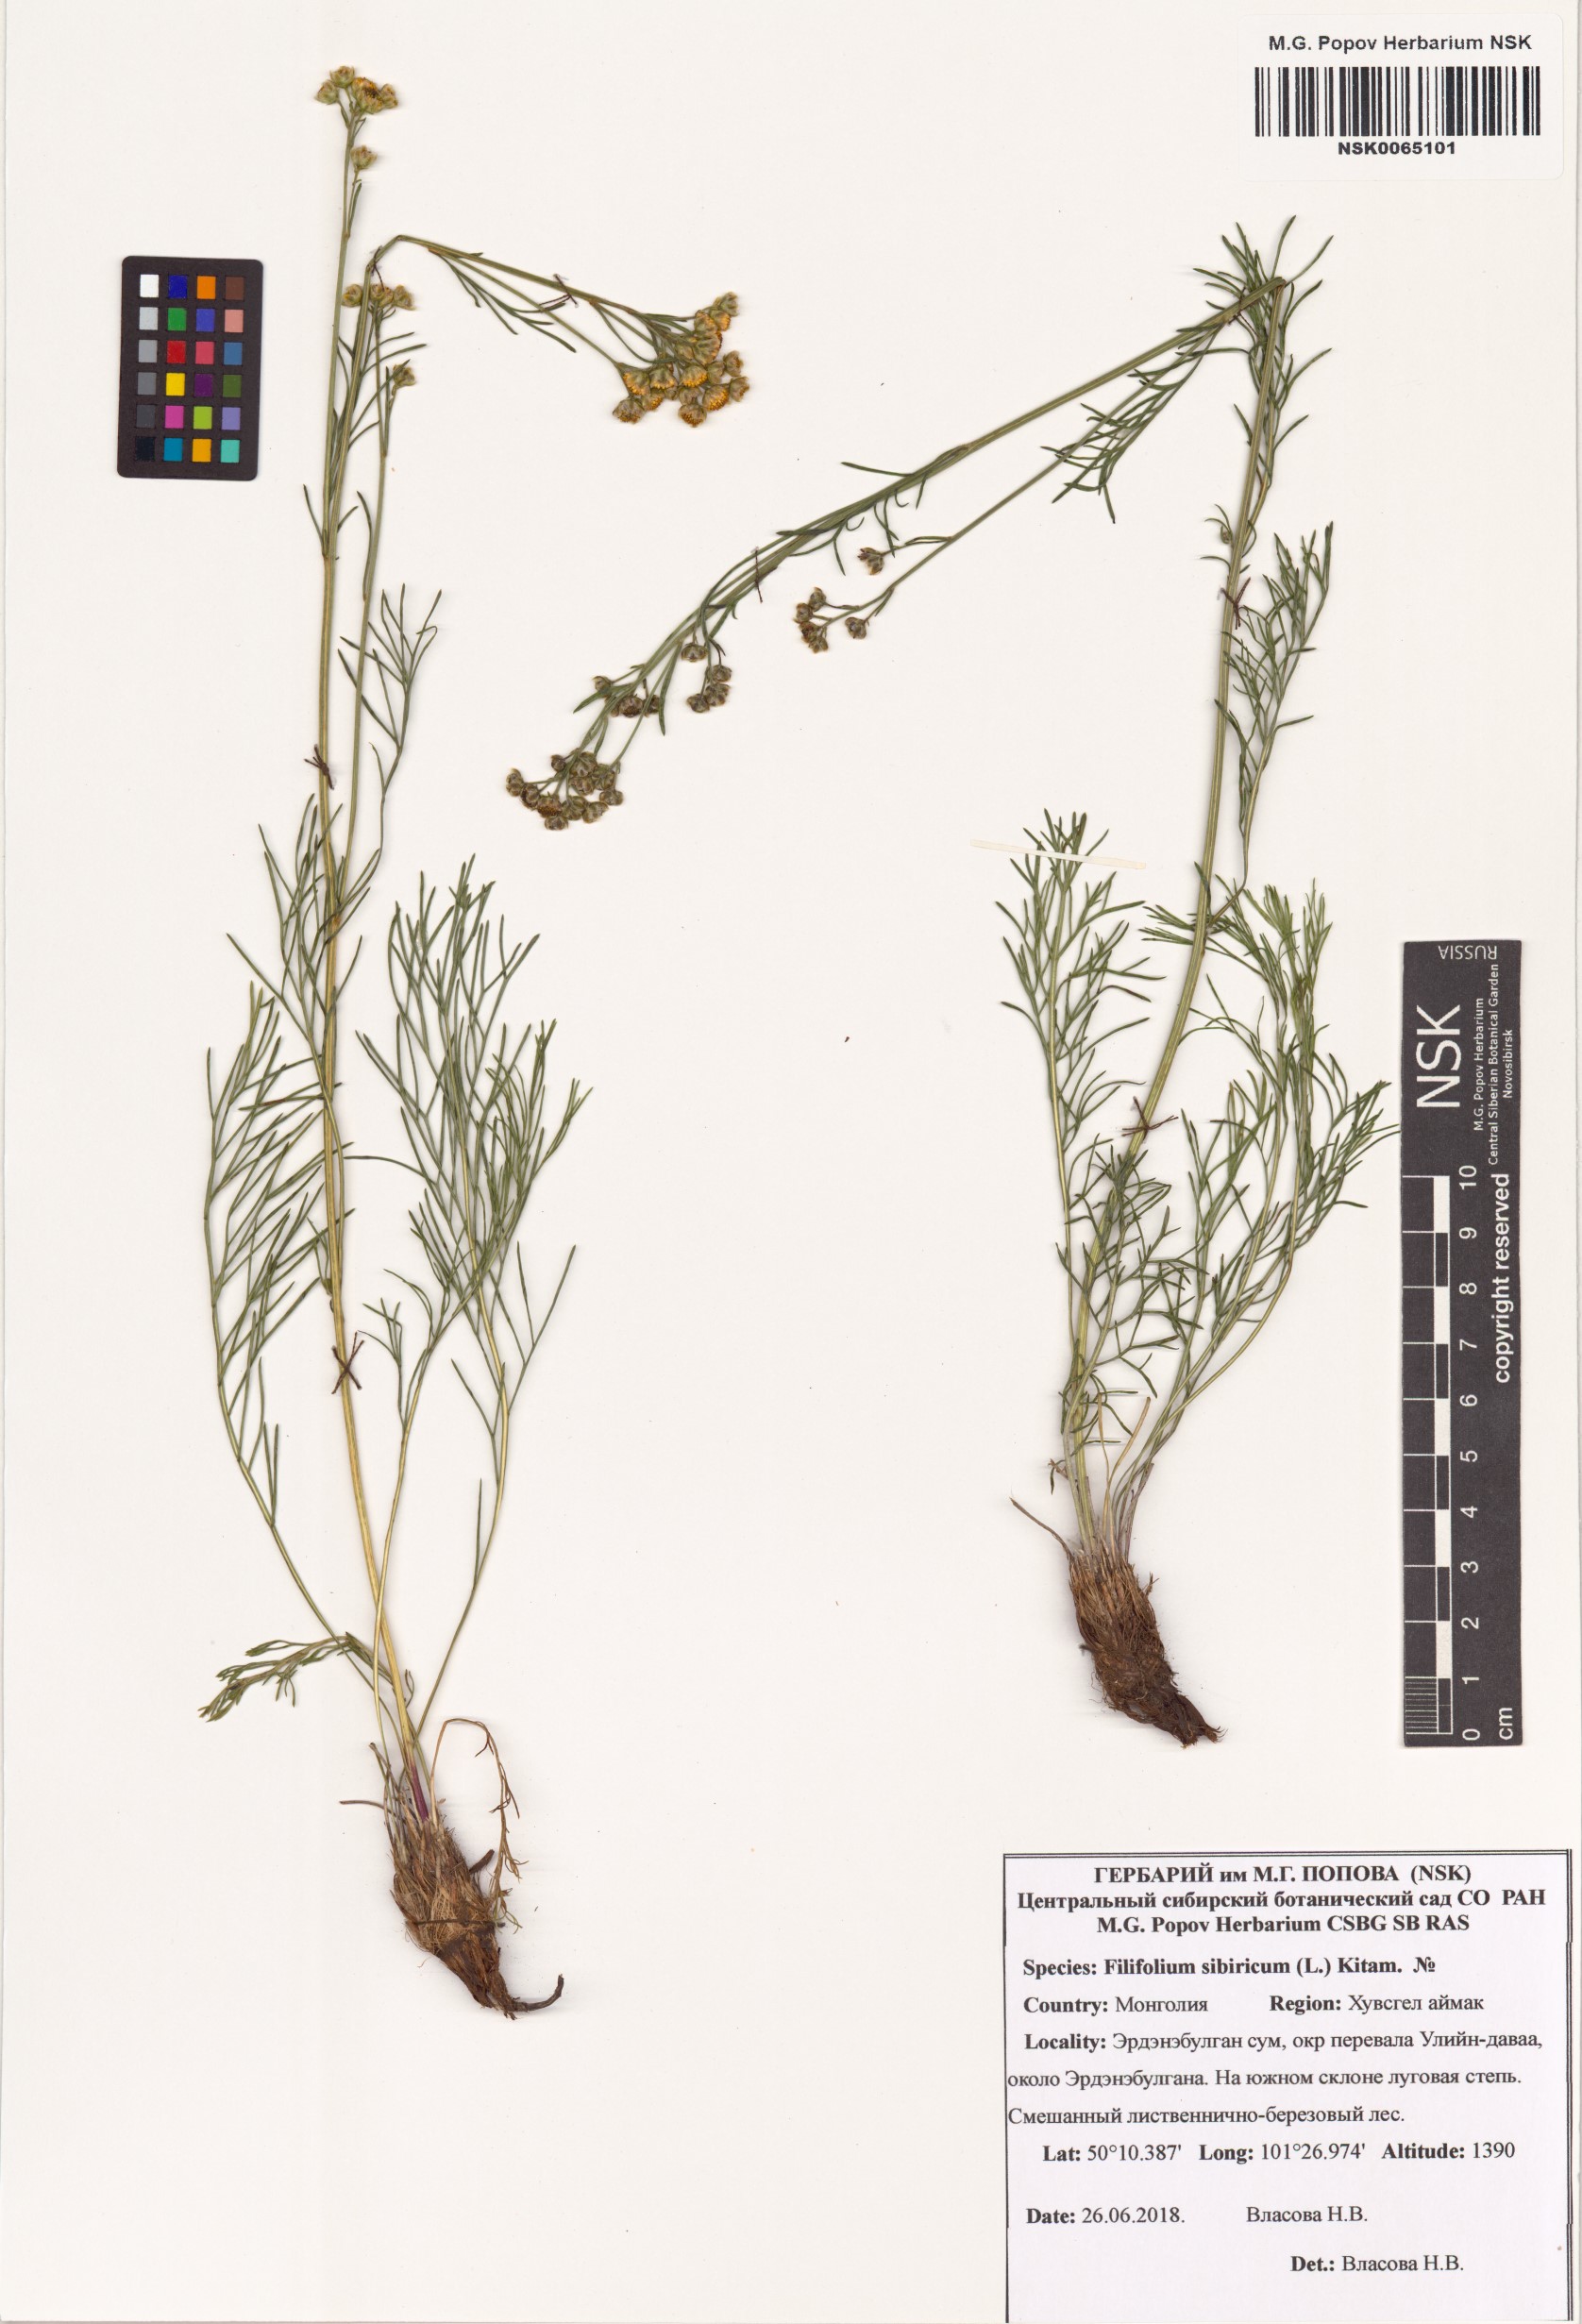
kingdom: Plantae
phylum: Tracheophyta
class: Magnoliopsida
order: Asterales
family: Asteraceae
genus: Filifolium
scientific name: Filifolium sibiricum
